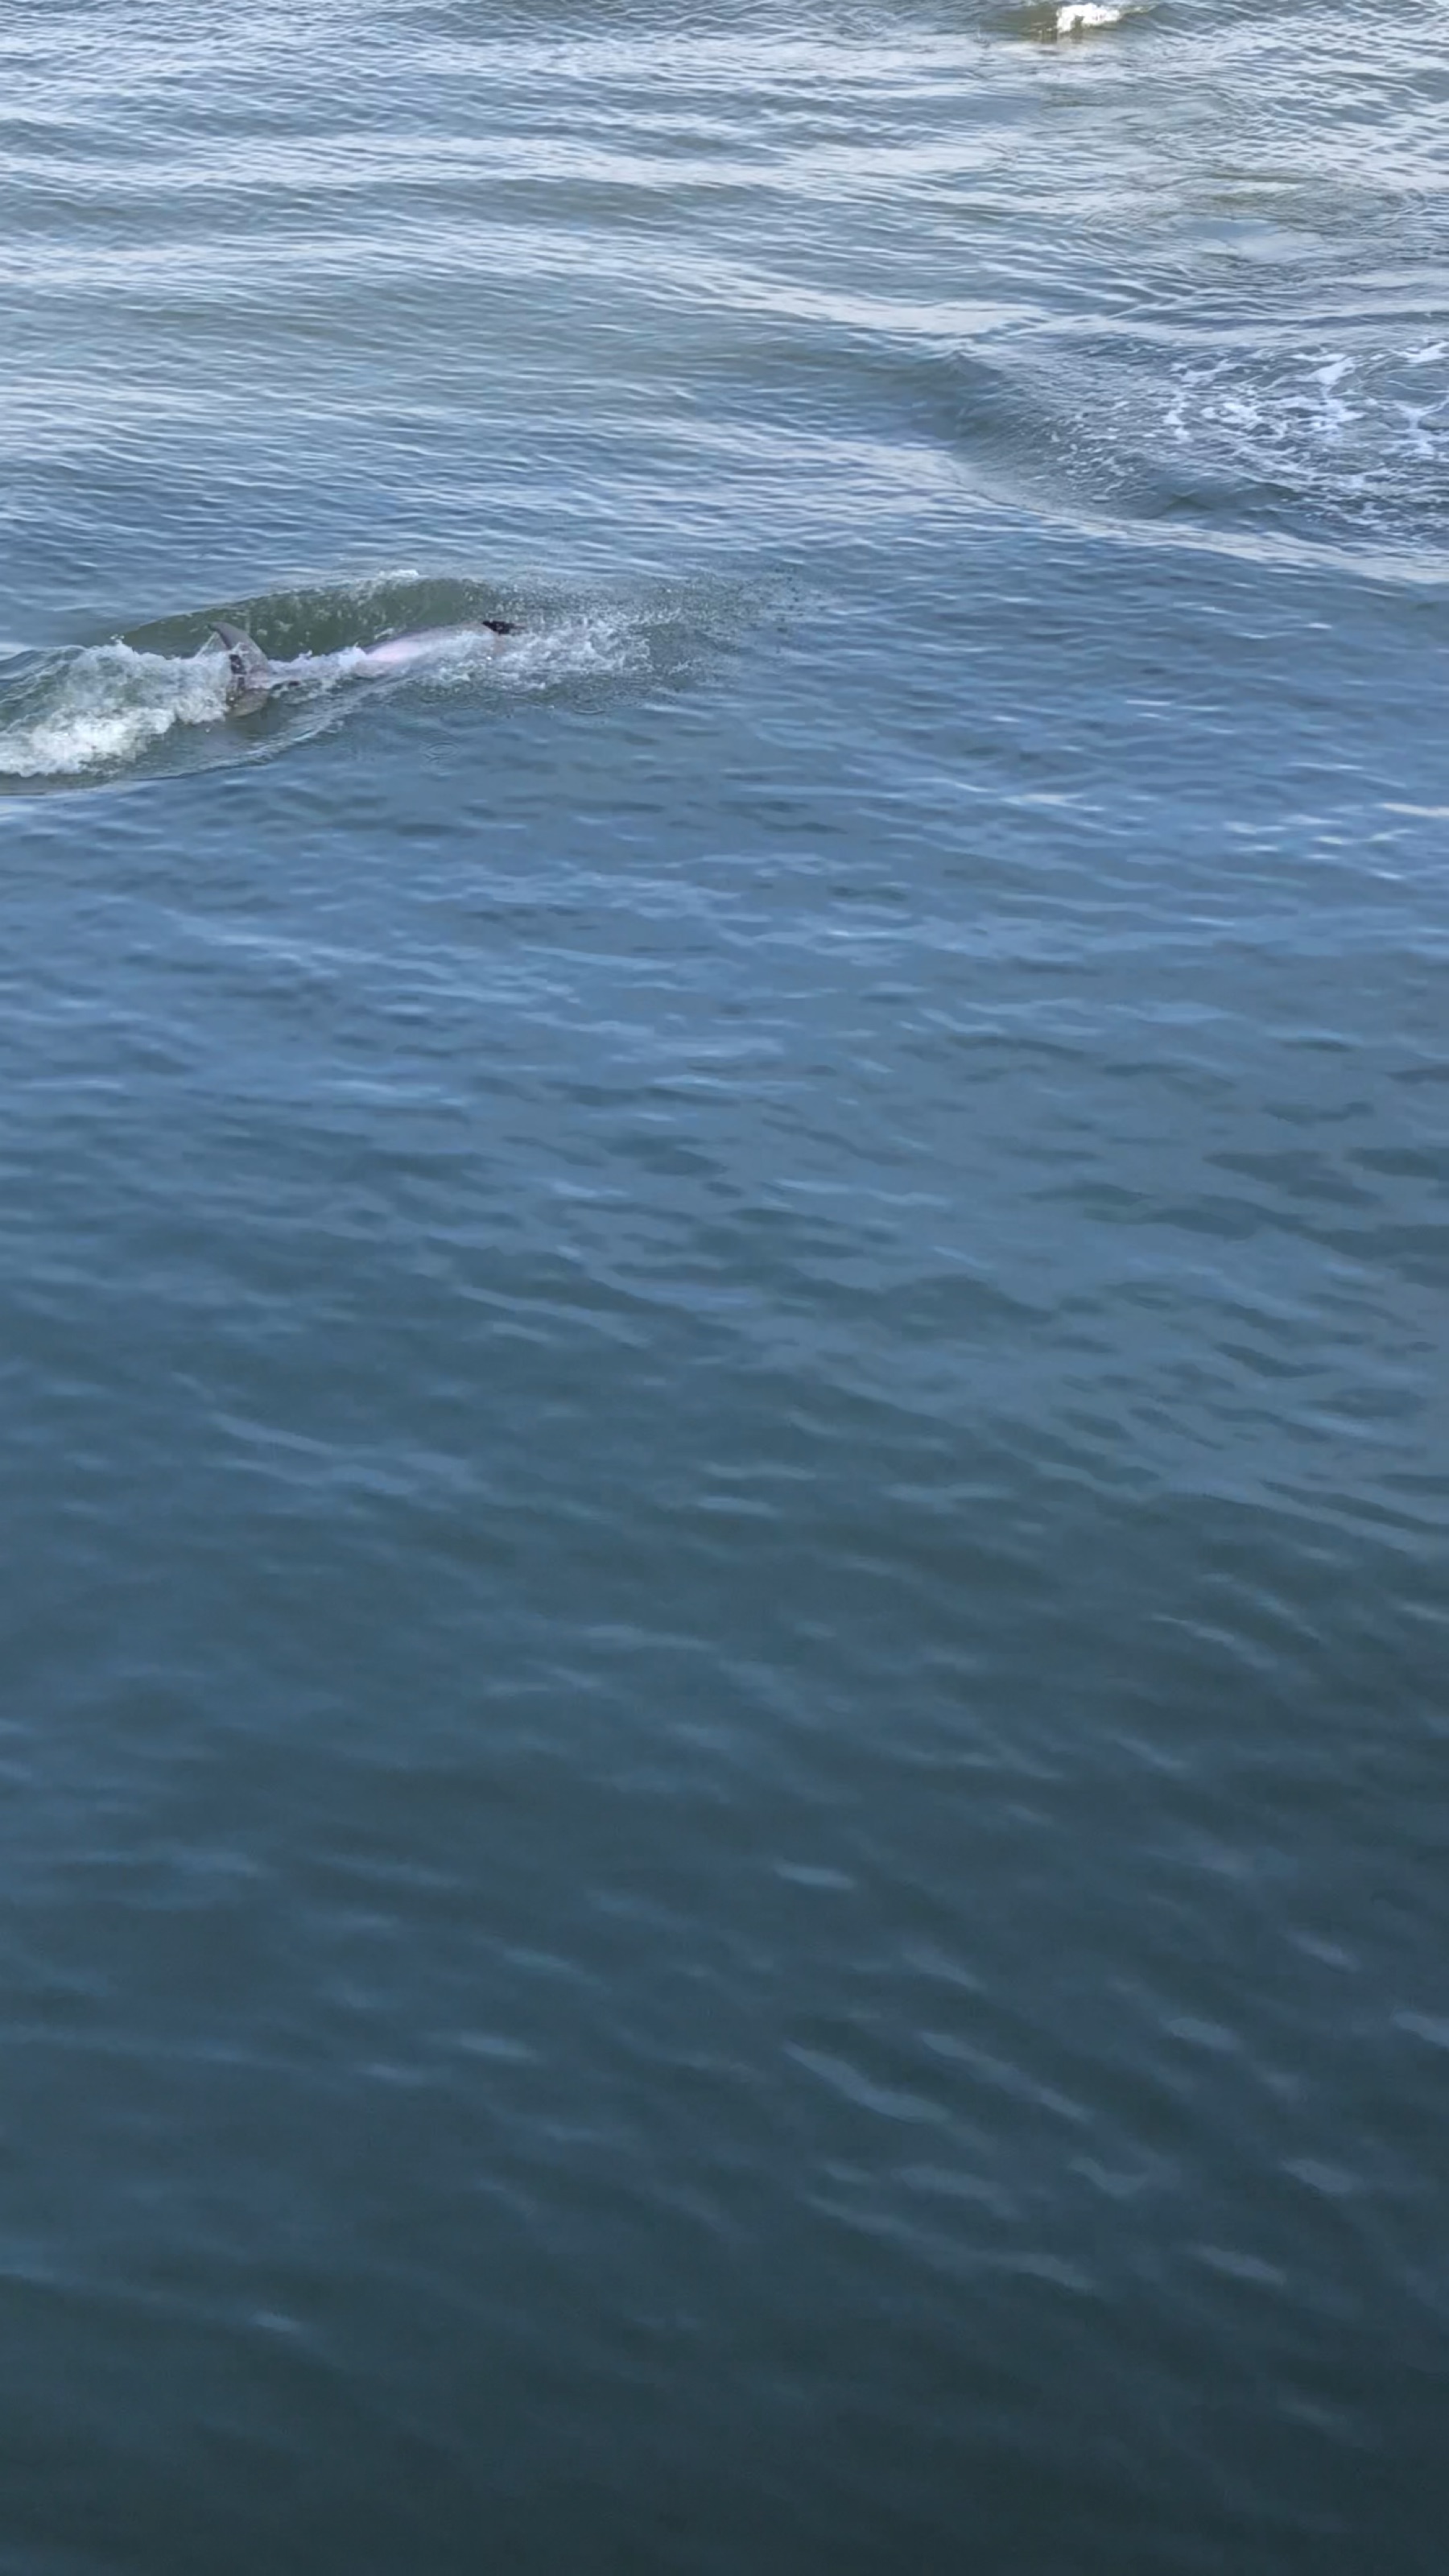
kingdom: Animalia
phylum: Chordata
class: Mammalia
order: Cetacea
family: Delphinidae
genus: Tursiops
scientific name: Tursiops truncatus
